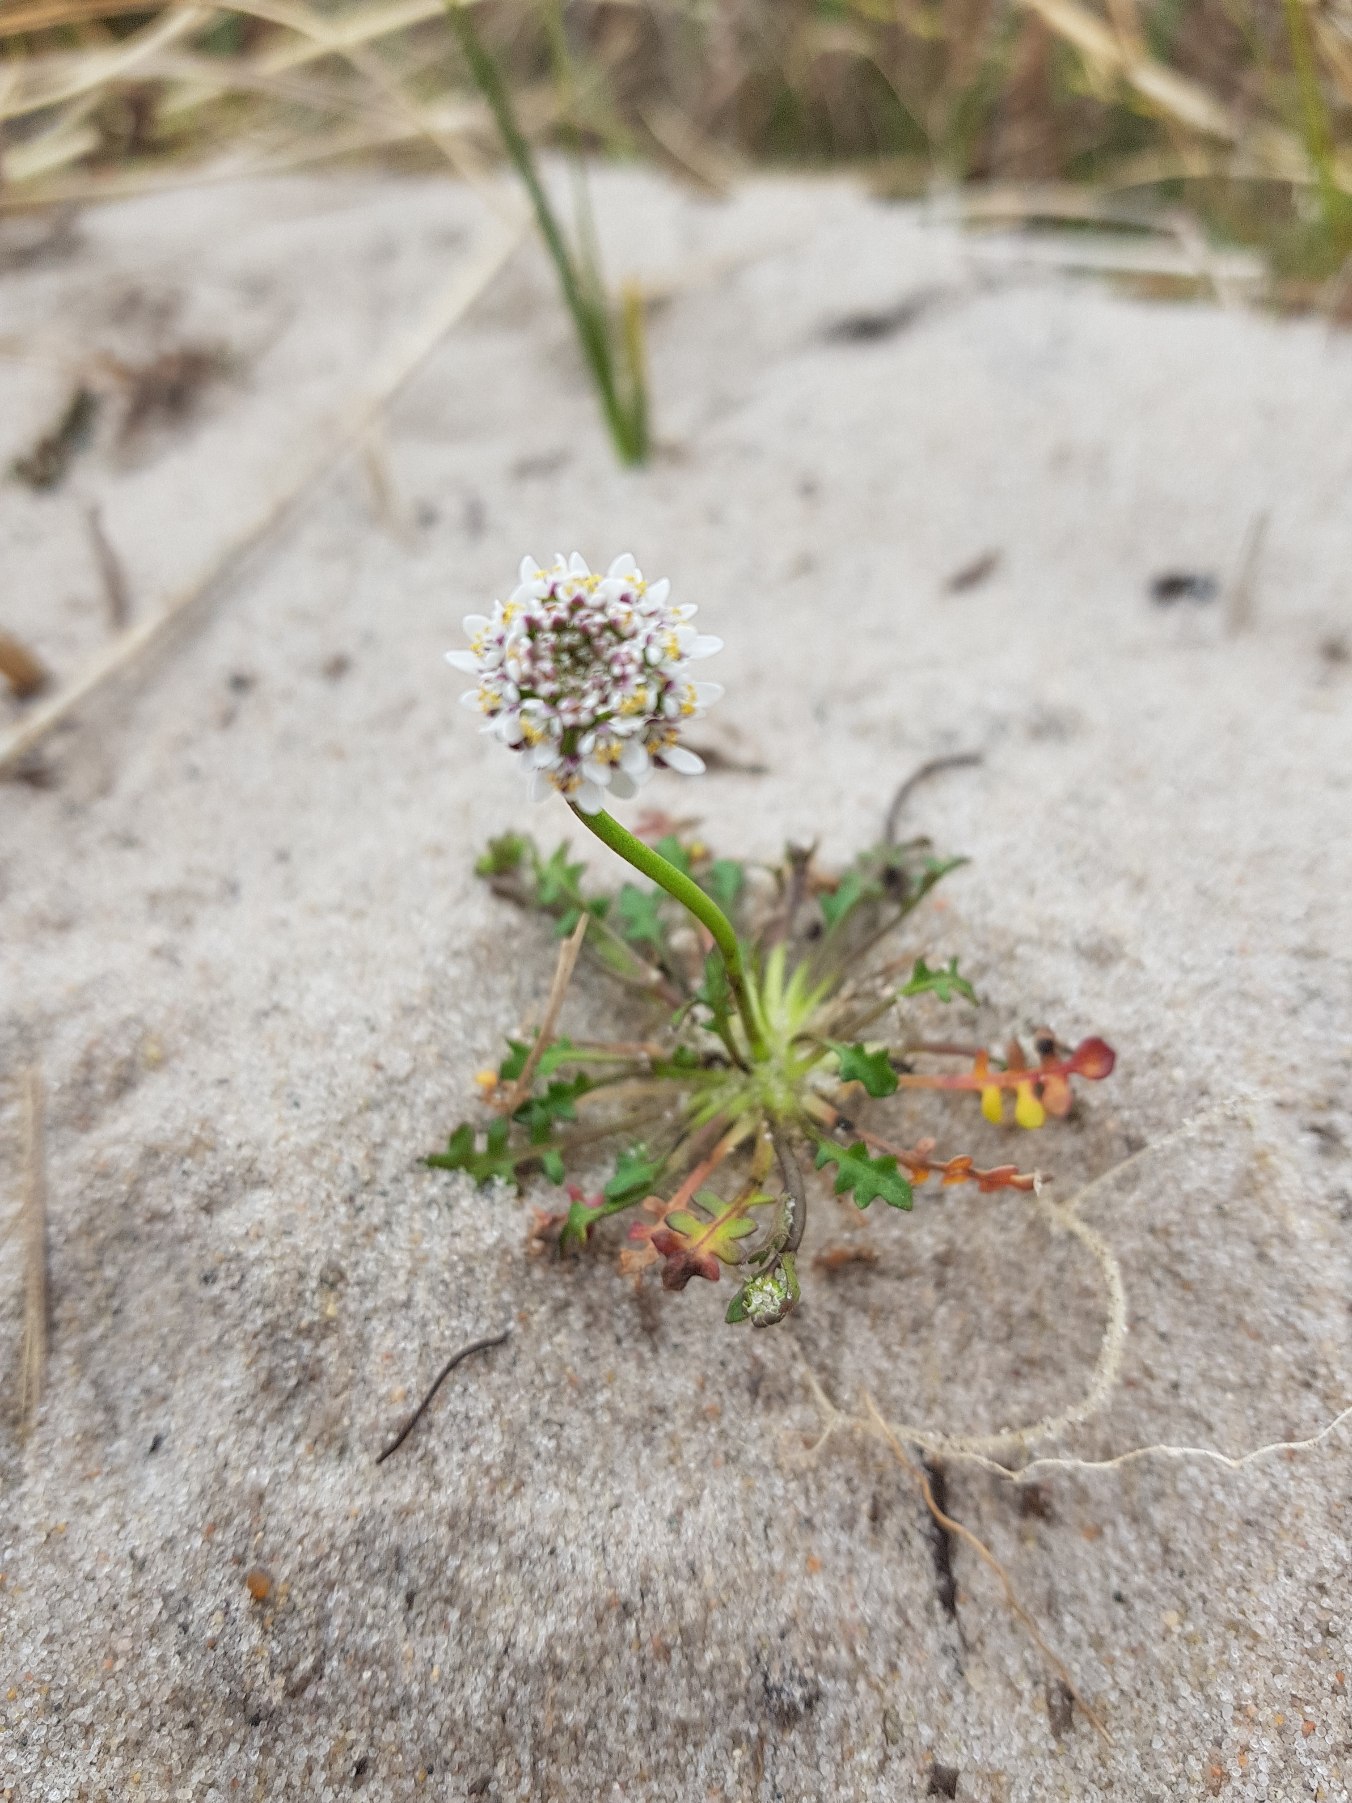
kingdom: Plantae
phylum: Tracheophyta
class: Magnoliopsida
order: Brassicales
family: Brassicaceae
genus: Teesdalia
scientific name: Teesdalia nudicaulis
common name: Flipkrave
